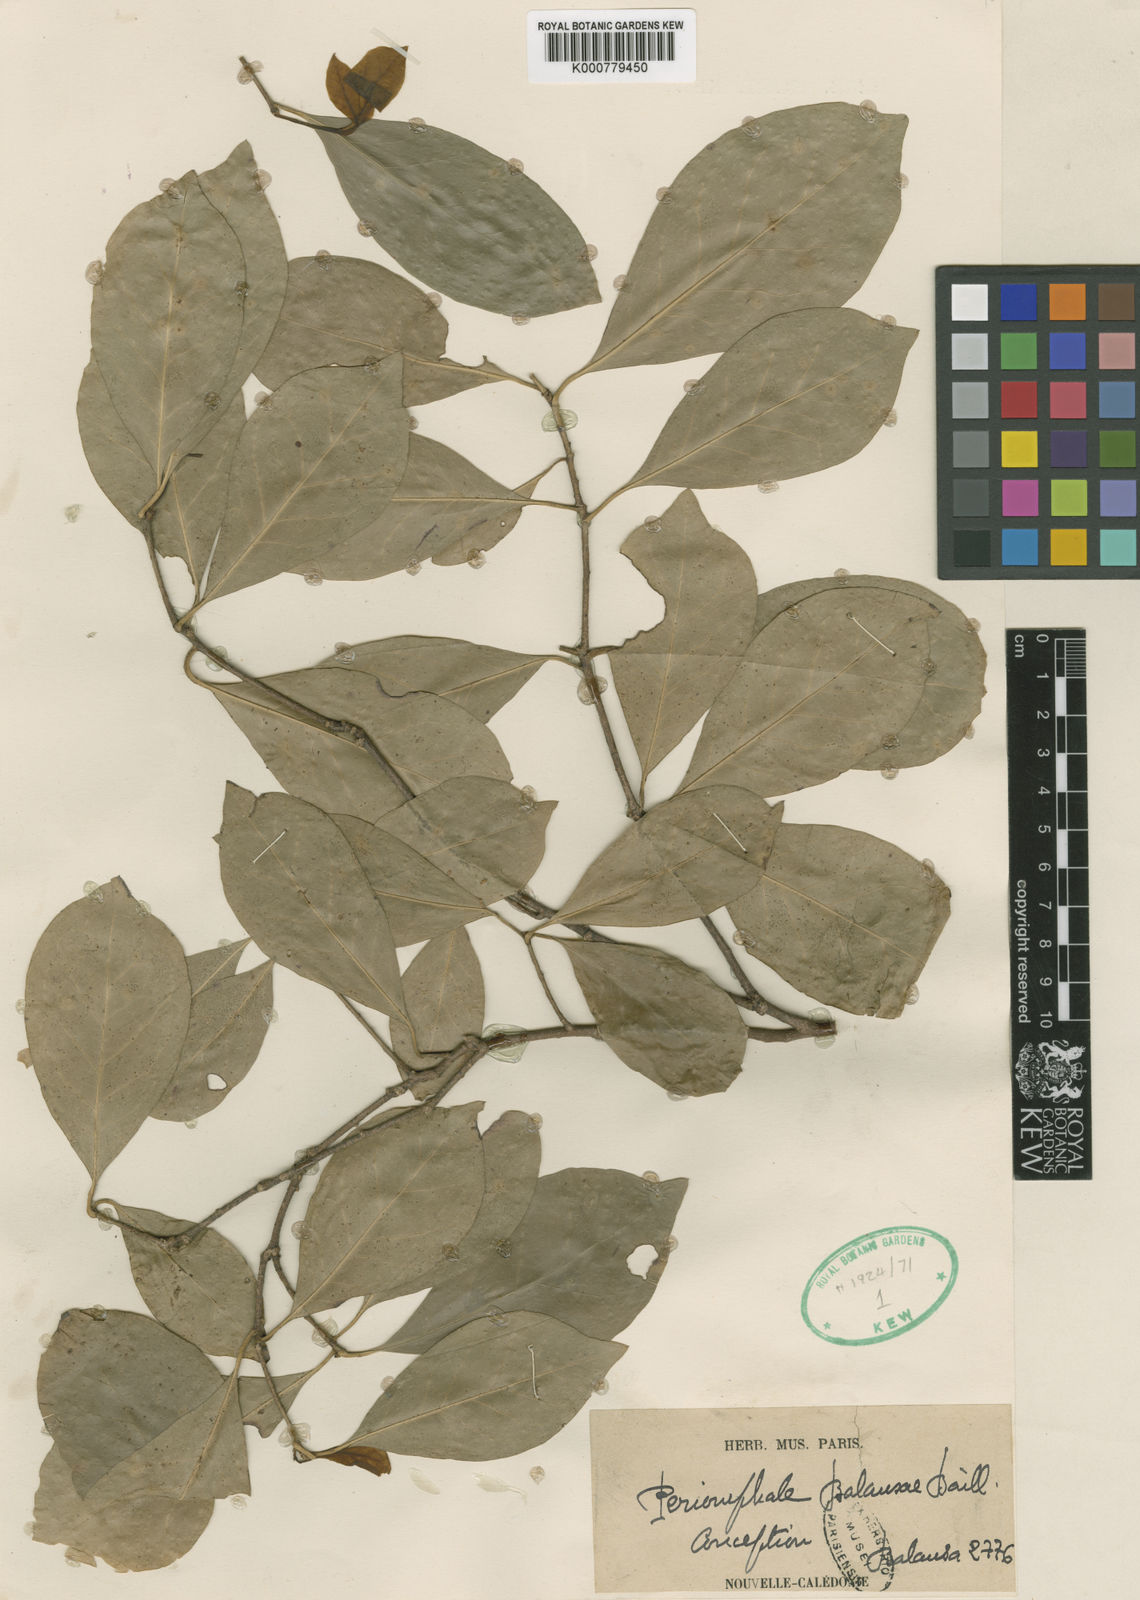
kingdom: Plantae
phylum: Tracheophyta
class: Magnoliopsida
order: Asterales
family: Alseuosmiaceae
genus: Periomphale
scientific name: Periomphale balansae
